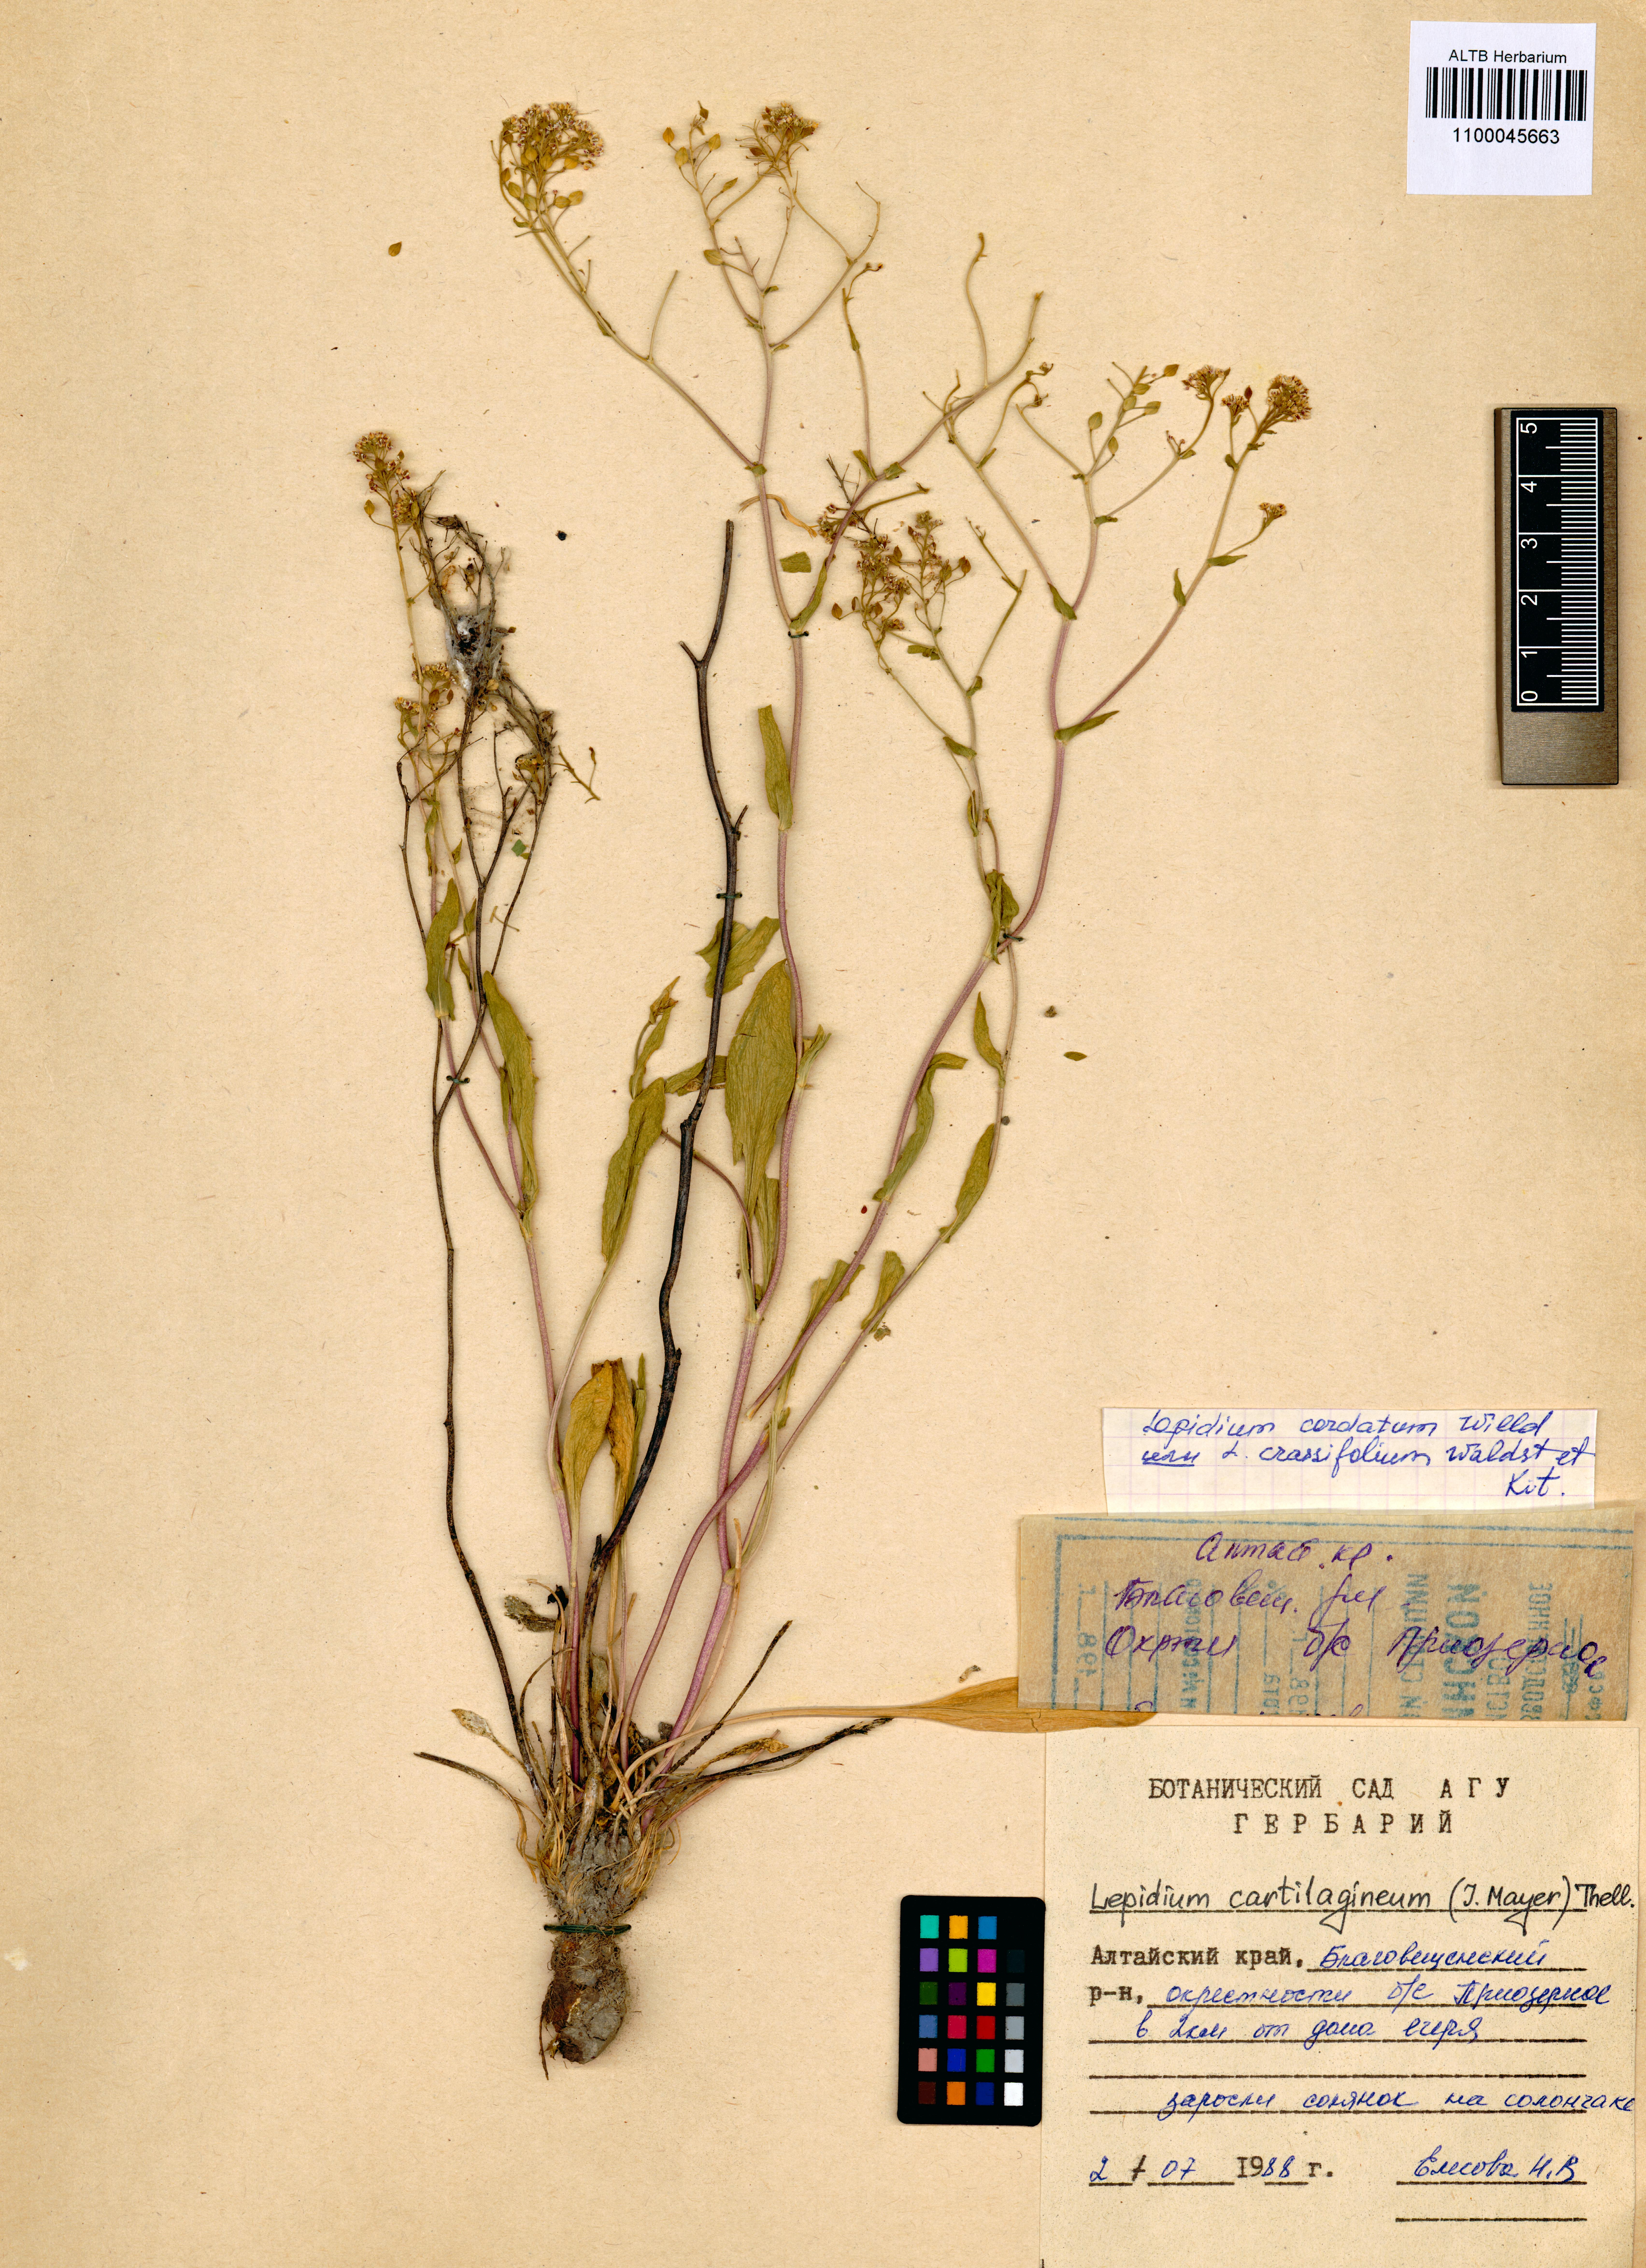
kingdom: Plantae
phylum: Tracheophyta
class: Magnoliopsida
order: Brassicales
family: Brassicaceae
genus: Lepidium
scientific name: Lepidium cartilagineum
